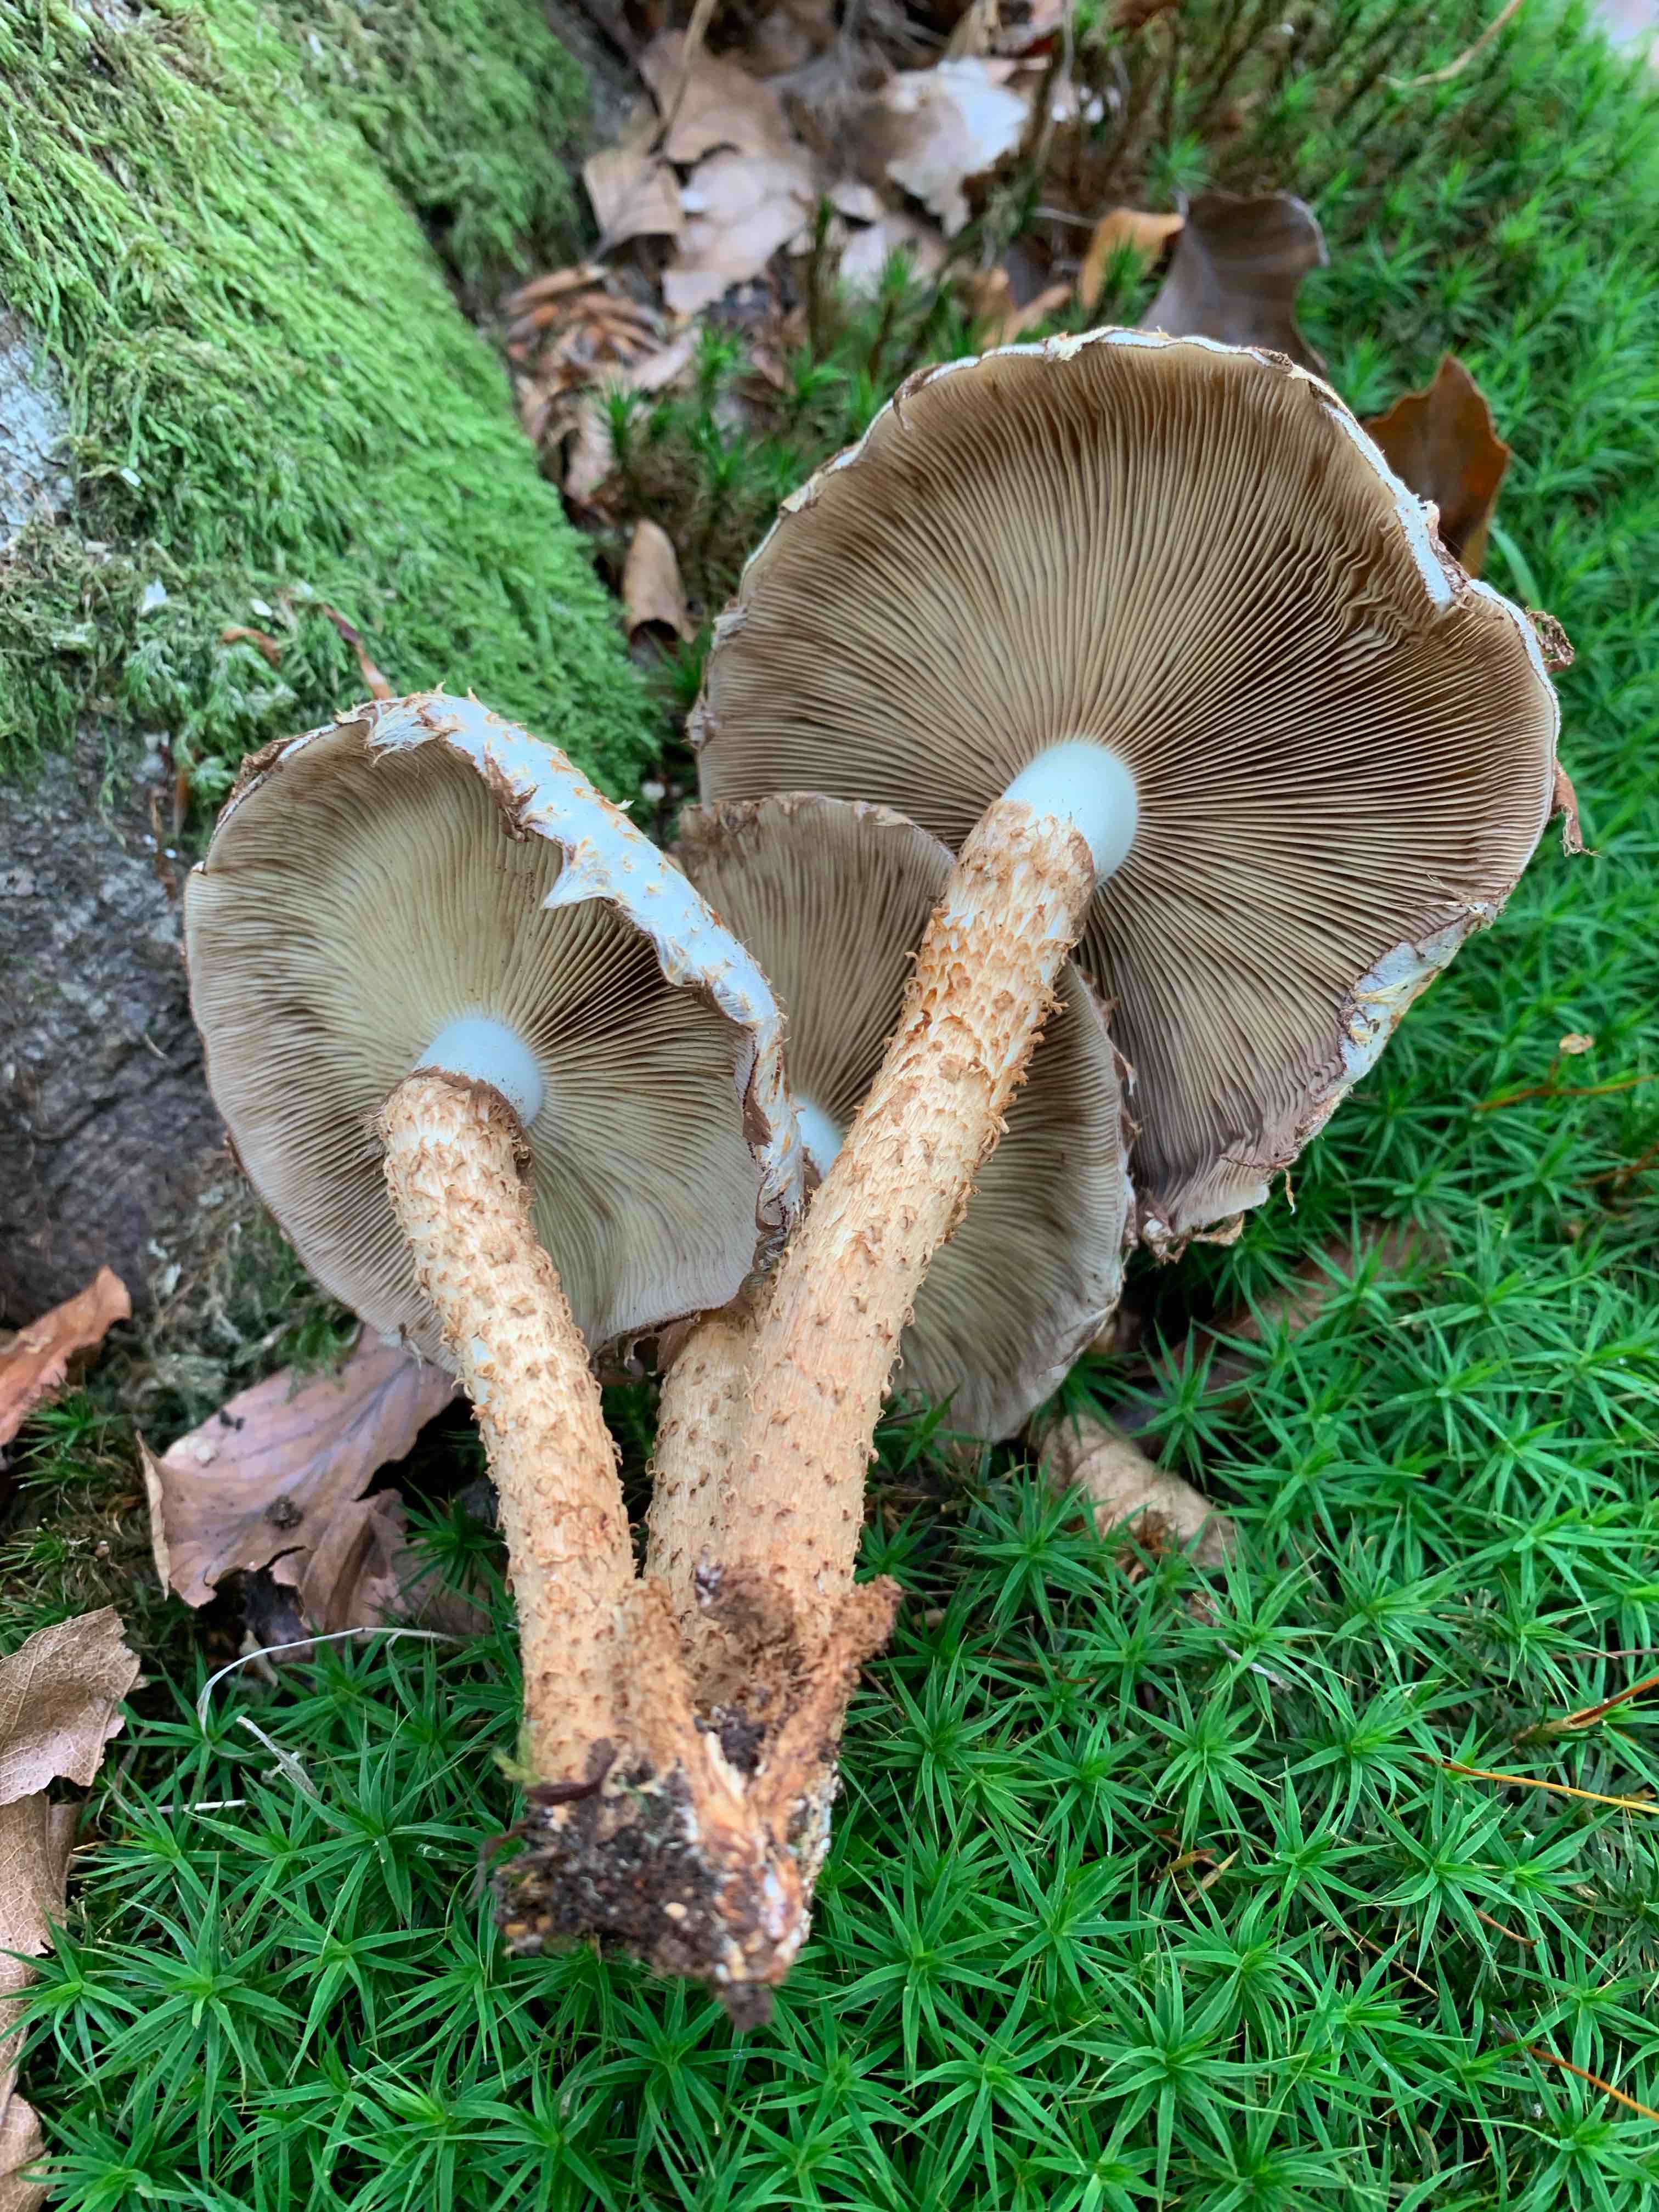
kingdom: Fungi
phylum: Basidiomycota
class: Agaricomycetes
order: Agaricales
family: Strophariaceae
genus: Pholiota
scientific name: Pholiota squarrosa
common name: krumskællet skælhat
